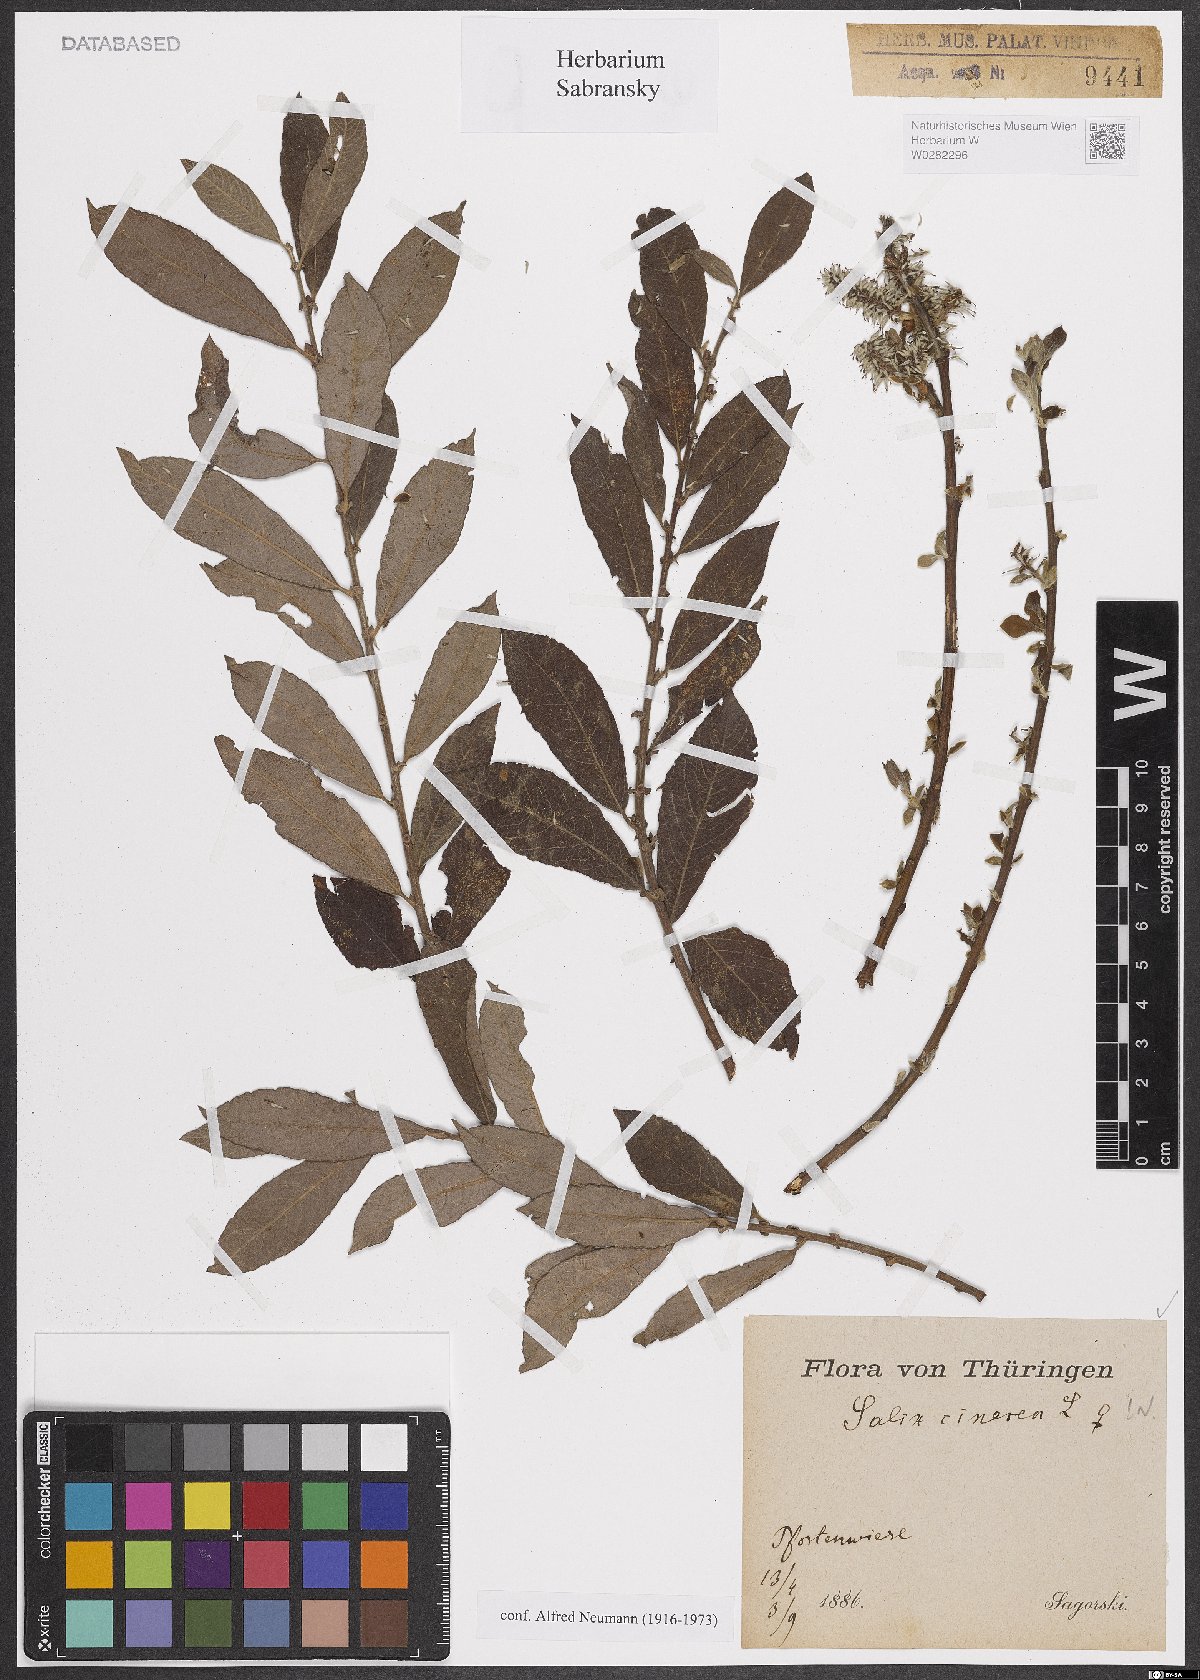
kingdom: Plantae
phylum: Tracheophyta
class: Magnoliopsida
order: Malpighiales
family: Salicaceae
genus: Salix
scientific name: Salix cinerea
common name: Common sallow
